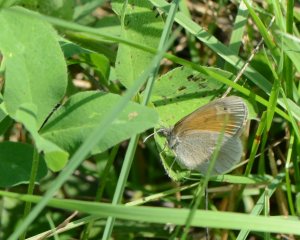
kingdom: Animalia
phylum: Arthropoda
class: Insecta
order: Lepidoptera
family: Nymphalidae
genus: Coenonympha
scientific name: Coenonympha tullia
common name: Large Heath
